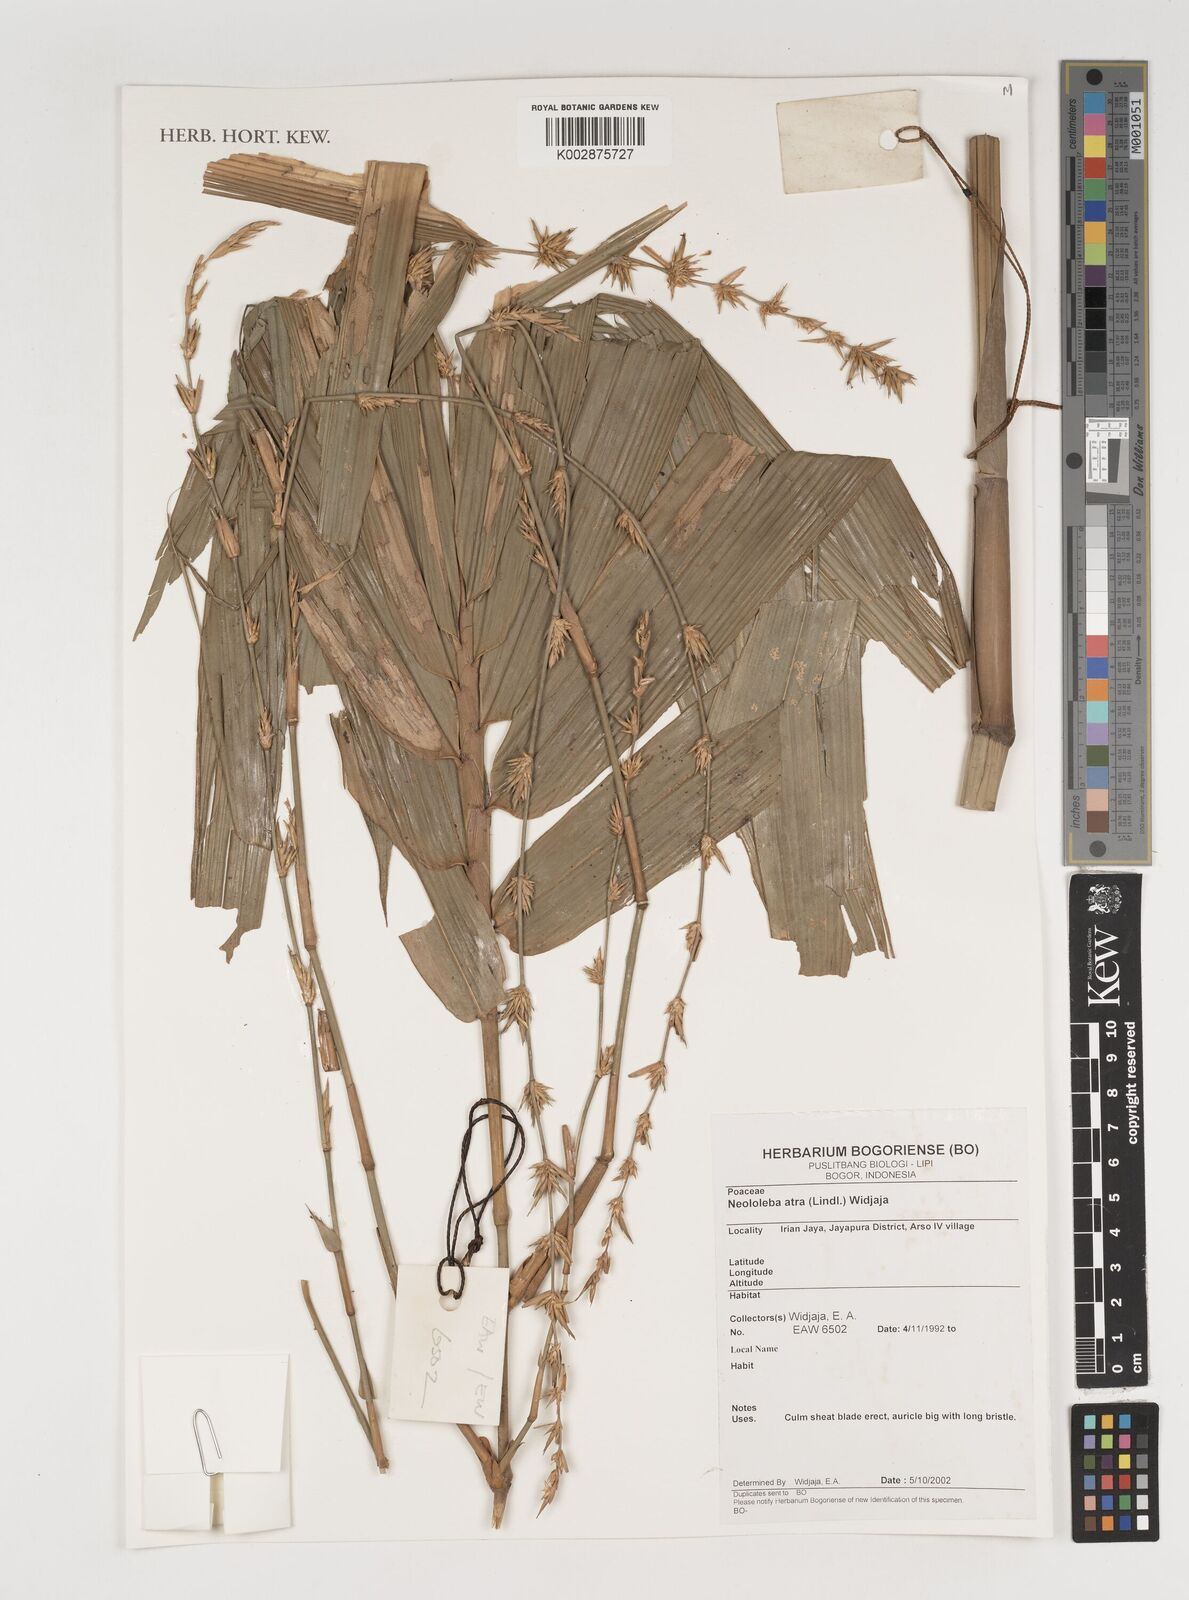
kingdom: Plantae
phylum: Tracheophyta
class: Liliopsida
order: Poales
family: Poaceae
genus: Neololeba
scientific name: Neololeba atra
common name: Cape bamboo
